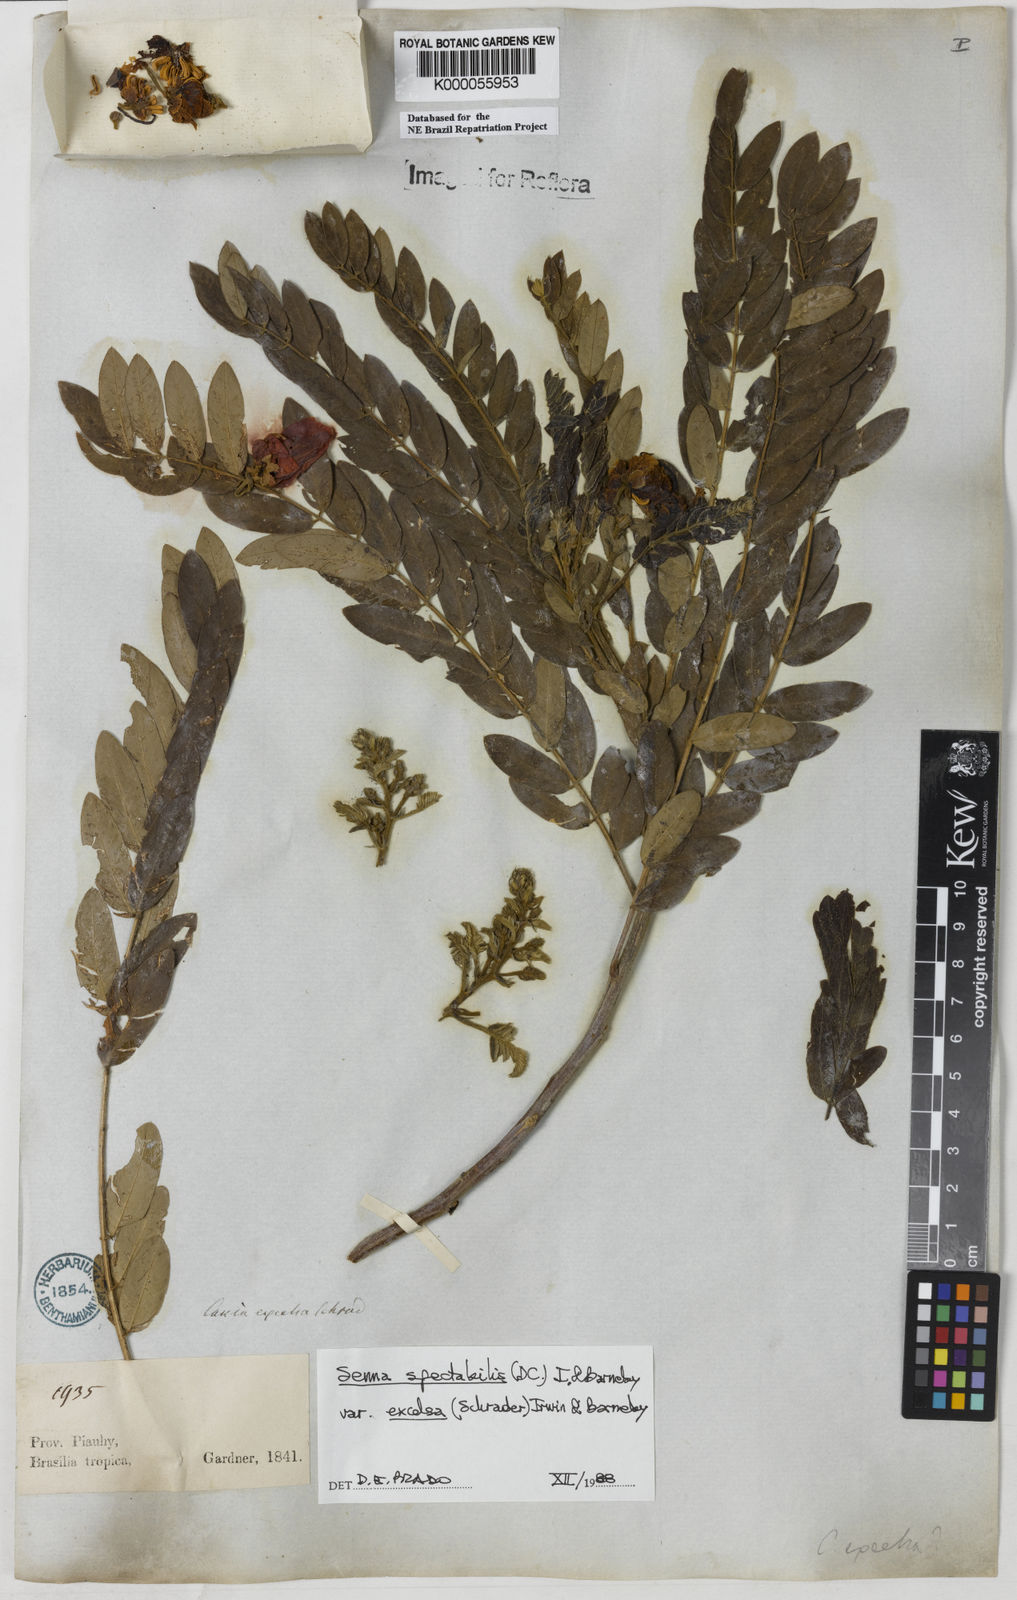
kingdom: Plantae
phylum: Tracheophyta
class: Magnoliopsida
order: Fabales
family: Fabaceae
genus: Senna
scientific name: Senna spectabilis
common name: Casia amarilla
